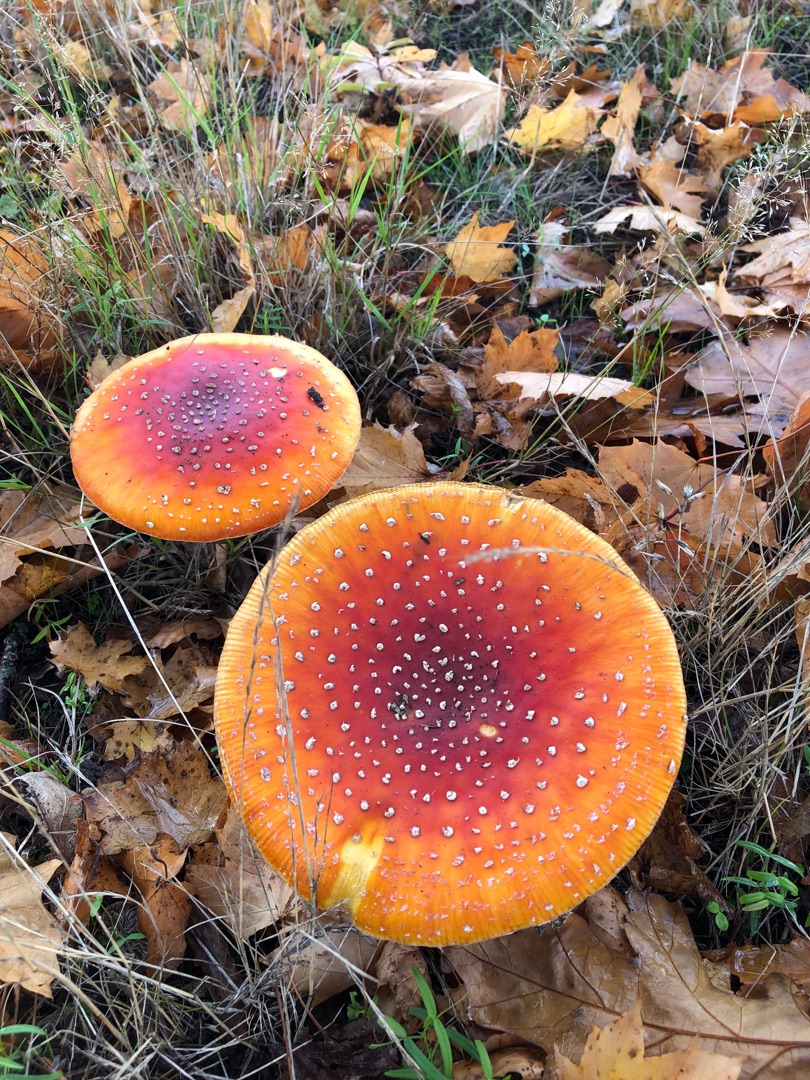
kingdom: Fungi
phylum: Basidiomycota
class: Agaricomycetes
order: Agaricales
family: Amanitaceae
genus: Amanita
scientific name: Amanita muscaria
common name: Rød fluesvamp
